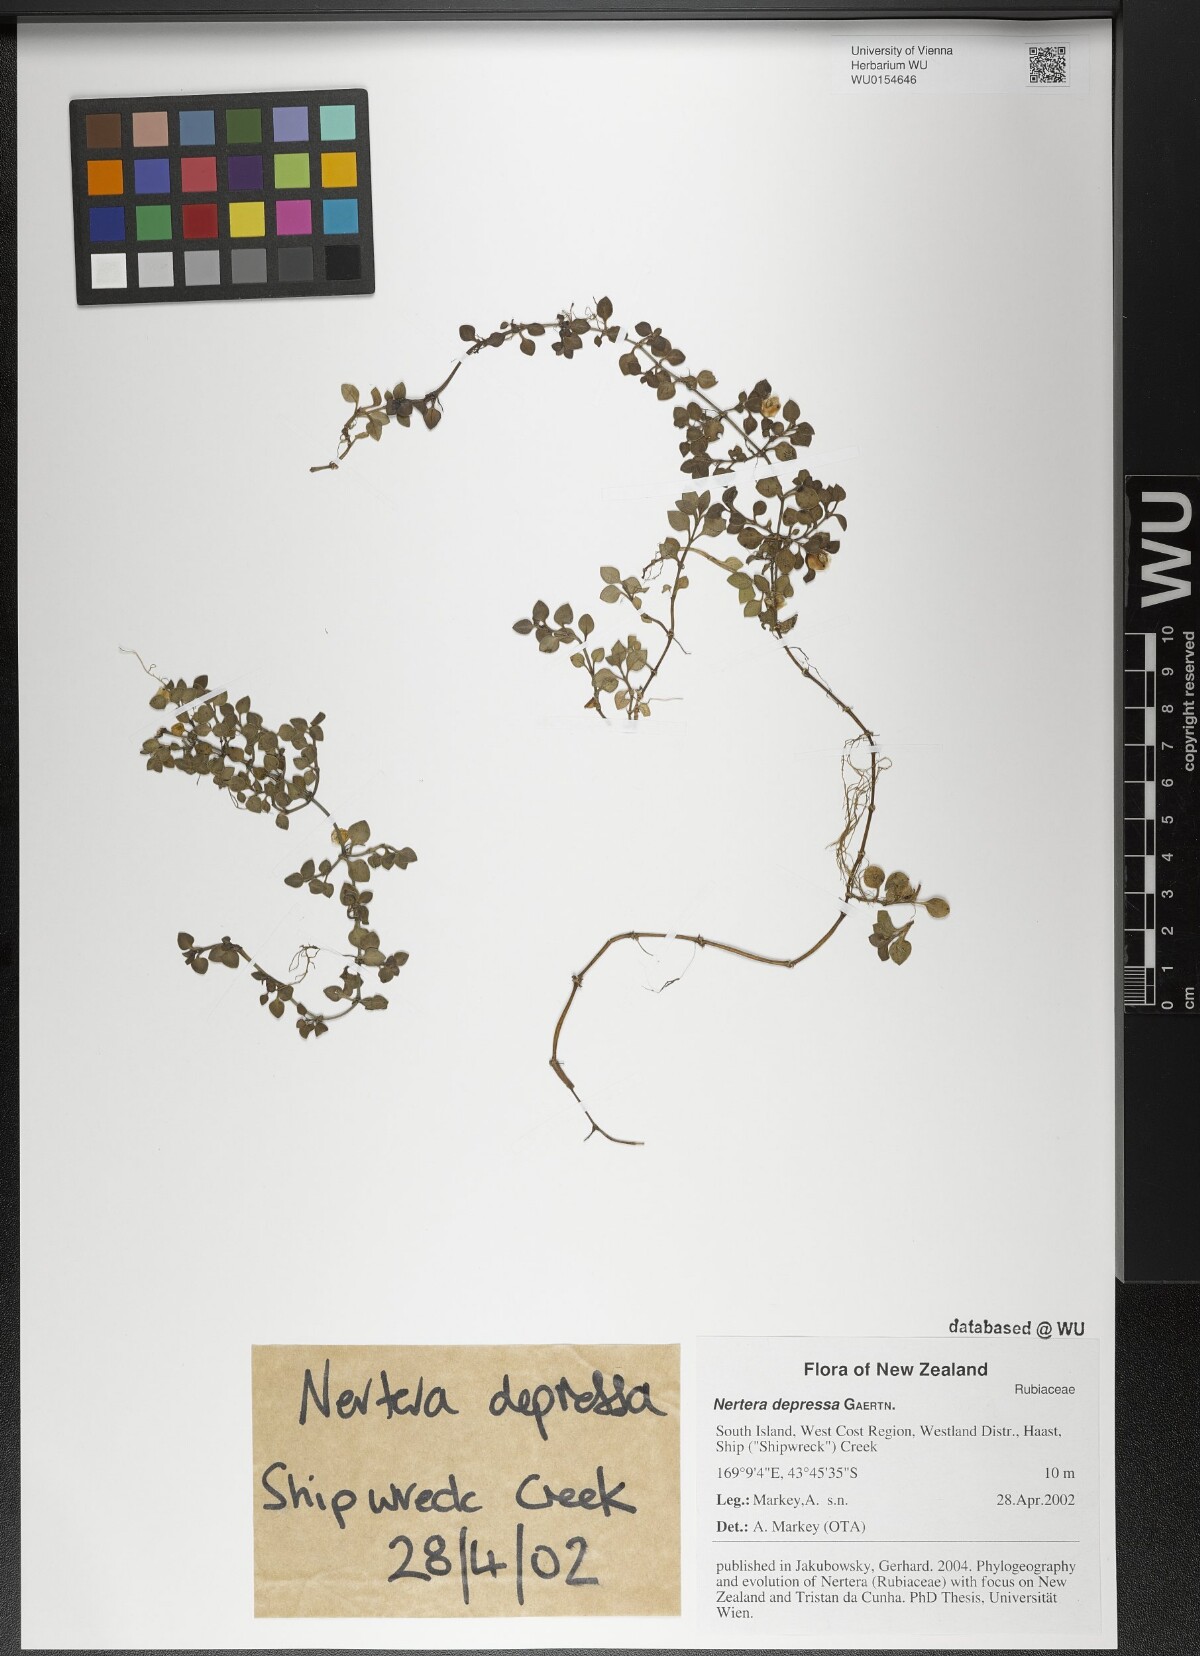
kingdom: Plantae
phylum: Tracheophyta
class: Magnoliopsida
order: Gentianales
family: Rubiaceae
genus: Nertera
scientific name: Nertera granadensis
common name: Beadplant
